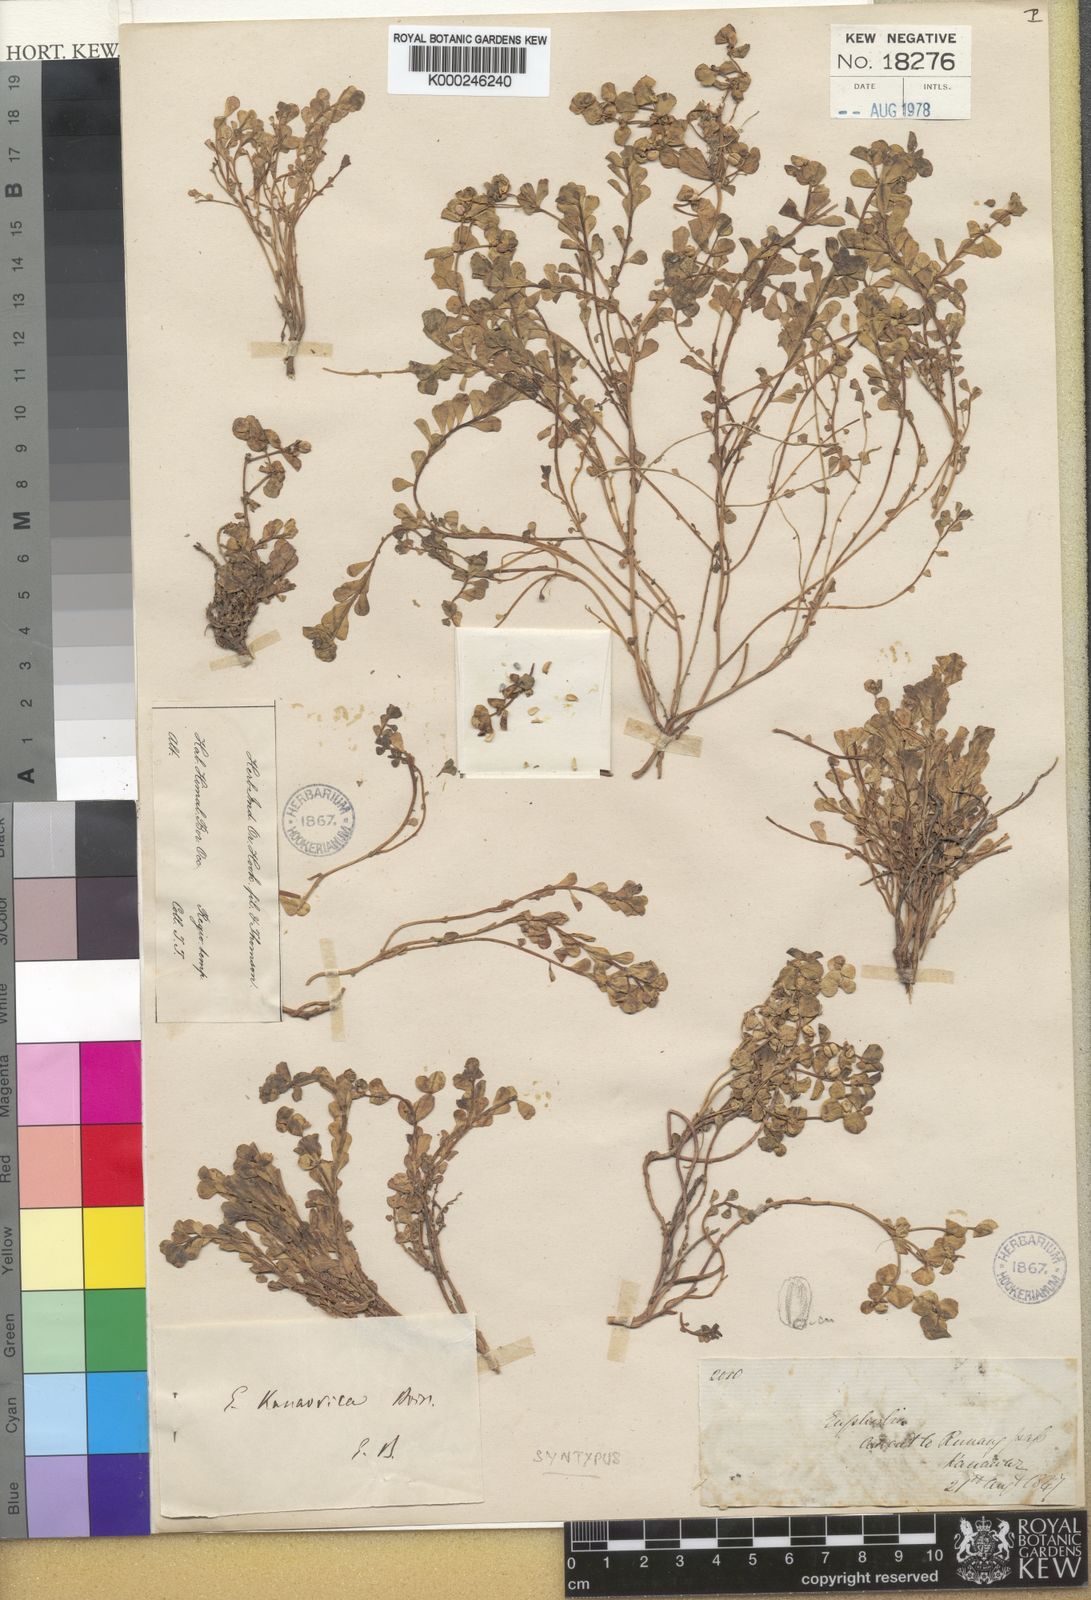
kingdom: Plantae
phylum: Tracheophyta
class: Magnoliopsida
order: Malpighiales
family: Euphorbiaceae
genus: Euphorbia
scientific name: Euphorbia kanaorica
